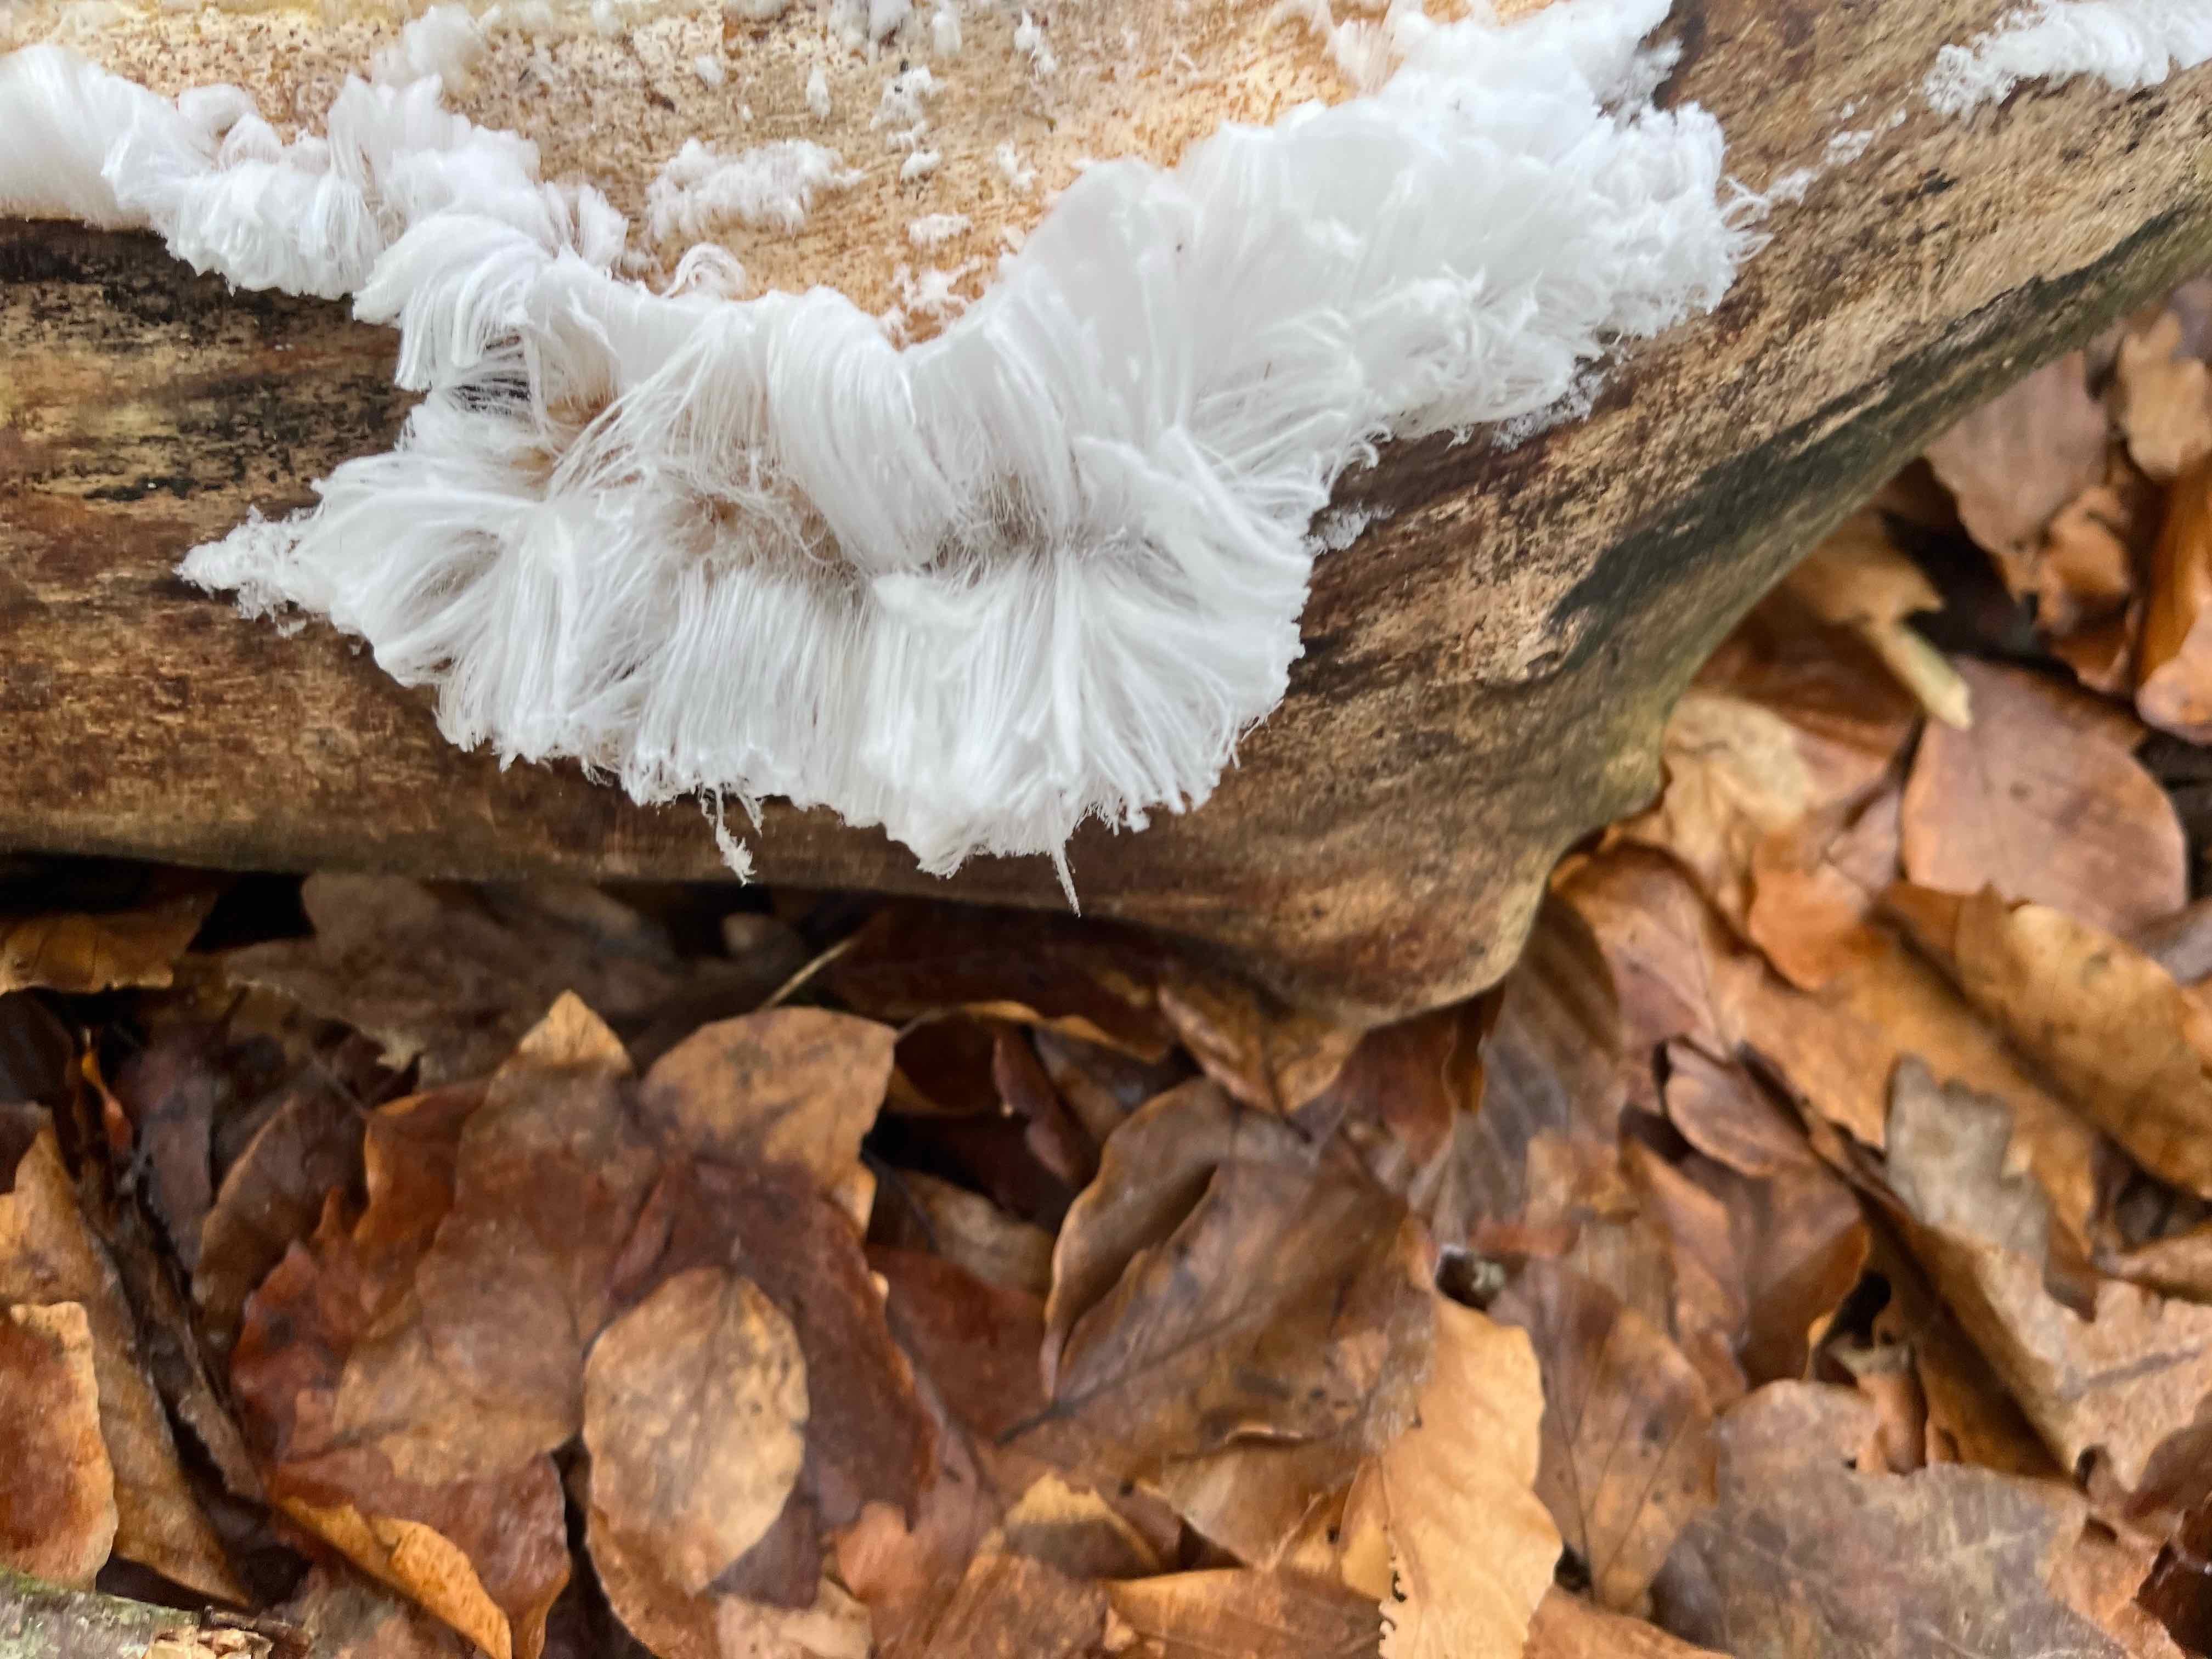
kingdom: Fungi
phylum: Basidiomycota
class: Tremellomycetes
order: Tremellales
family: Exidiaceae
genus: Exidiopsis
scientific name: Exidiopsis effusa
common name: smuk bævrehinde
